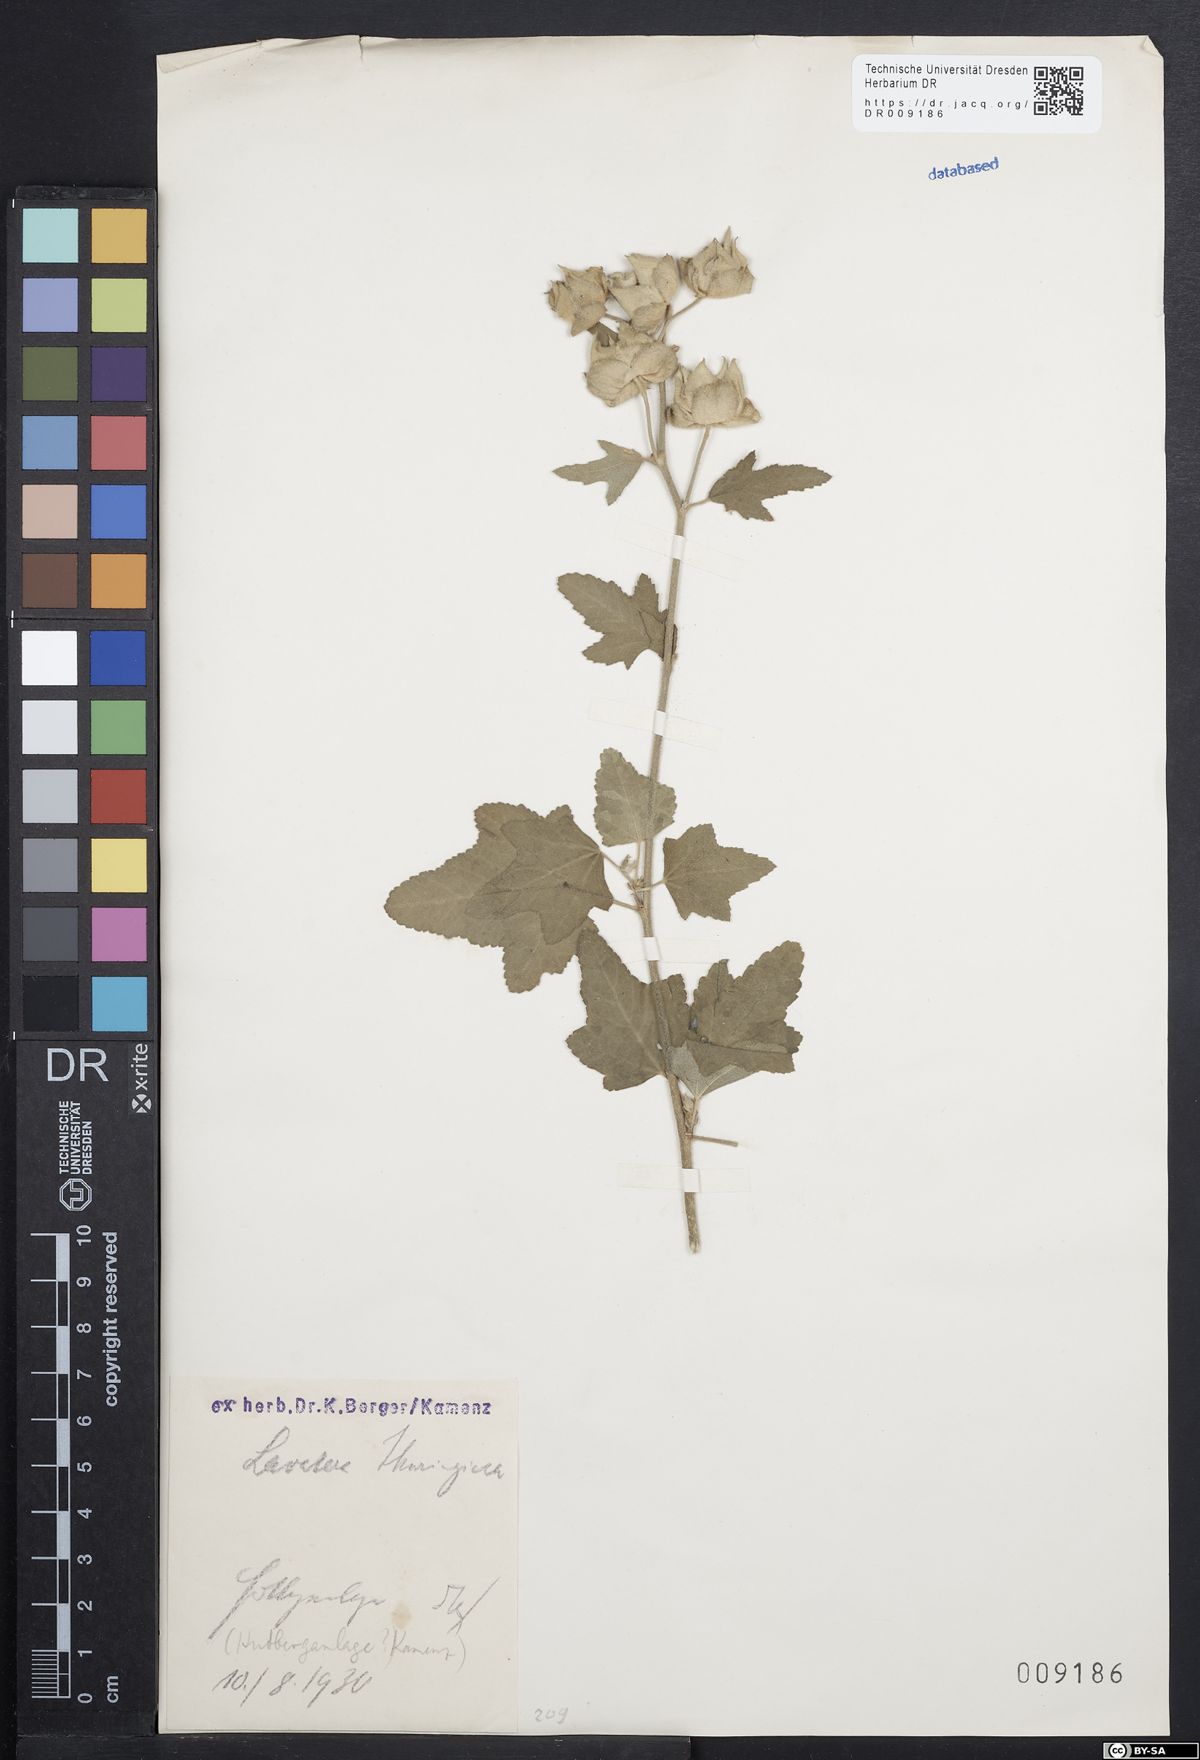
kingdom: Plantae
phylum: Tracheophyta
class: Magnoliopsida
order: Malvales
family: Malvaceae
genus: Malva
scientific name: Malva thuringiaca
